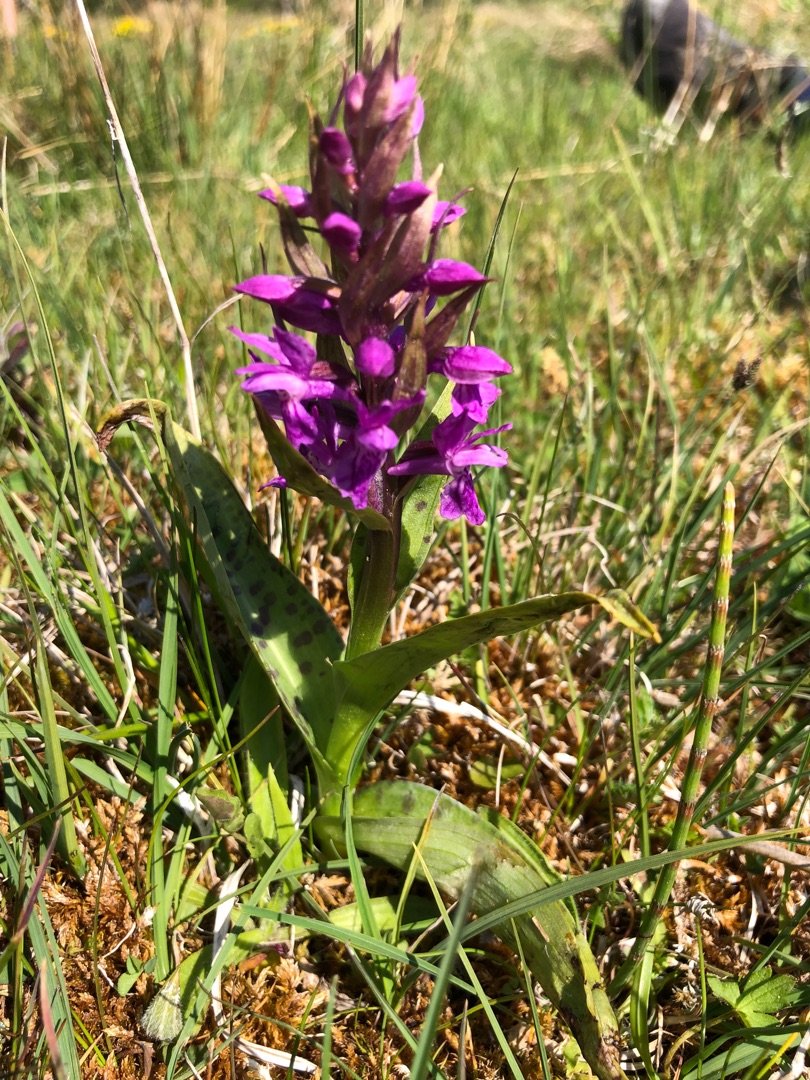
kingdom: Plantae
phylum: Tracheophyta
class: Liliopsida
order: Asparagales
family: Orchidaceae
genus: Dactylorhiza
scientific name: Dactylorhiza majalis
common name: Maj-gøgeurt
